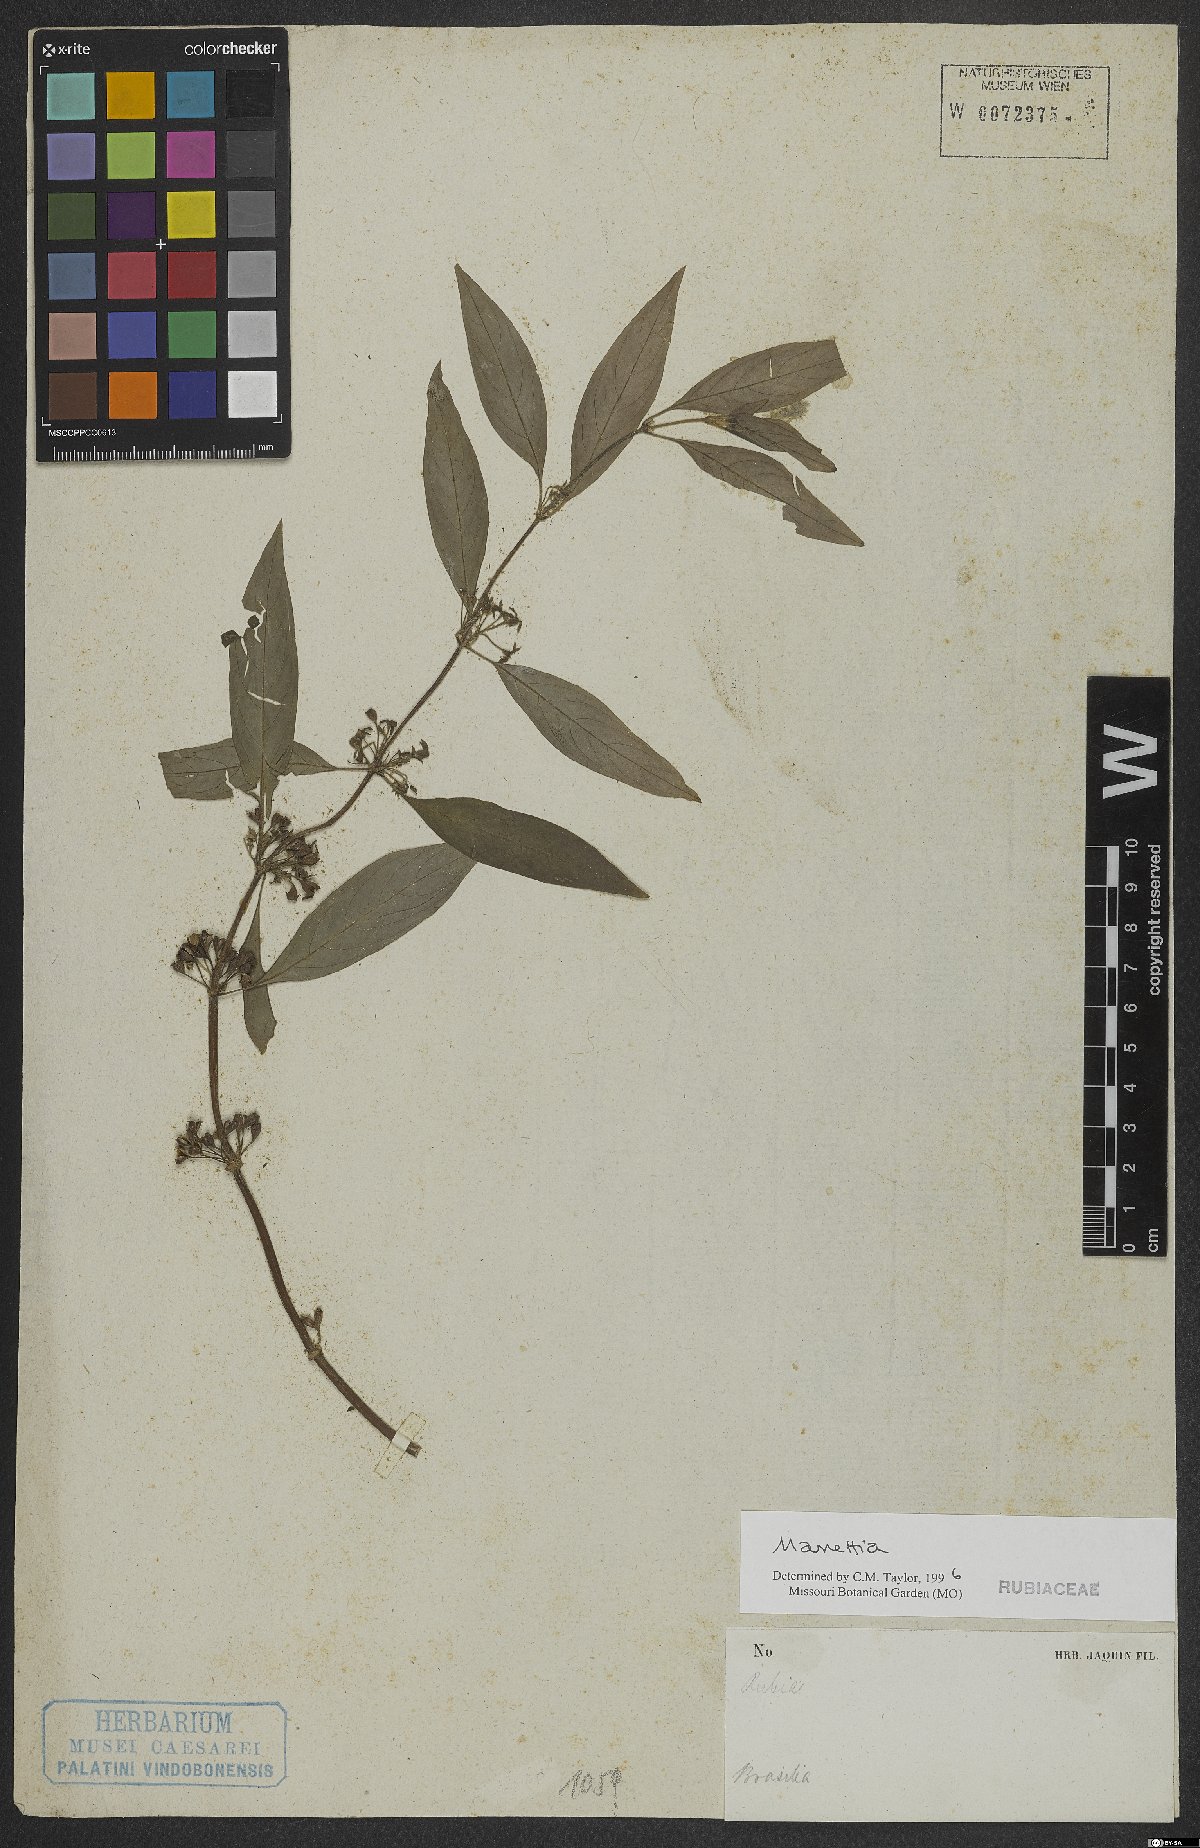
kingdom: Plantae
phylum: Tracheophyta
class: Magnoliopsida
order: Gentianales
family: Rubiaceae
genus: Manettia
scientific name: Manettia
